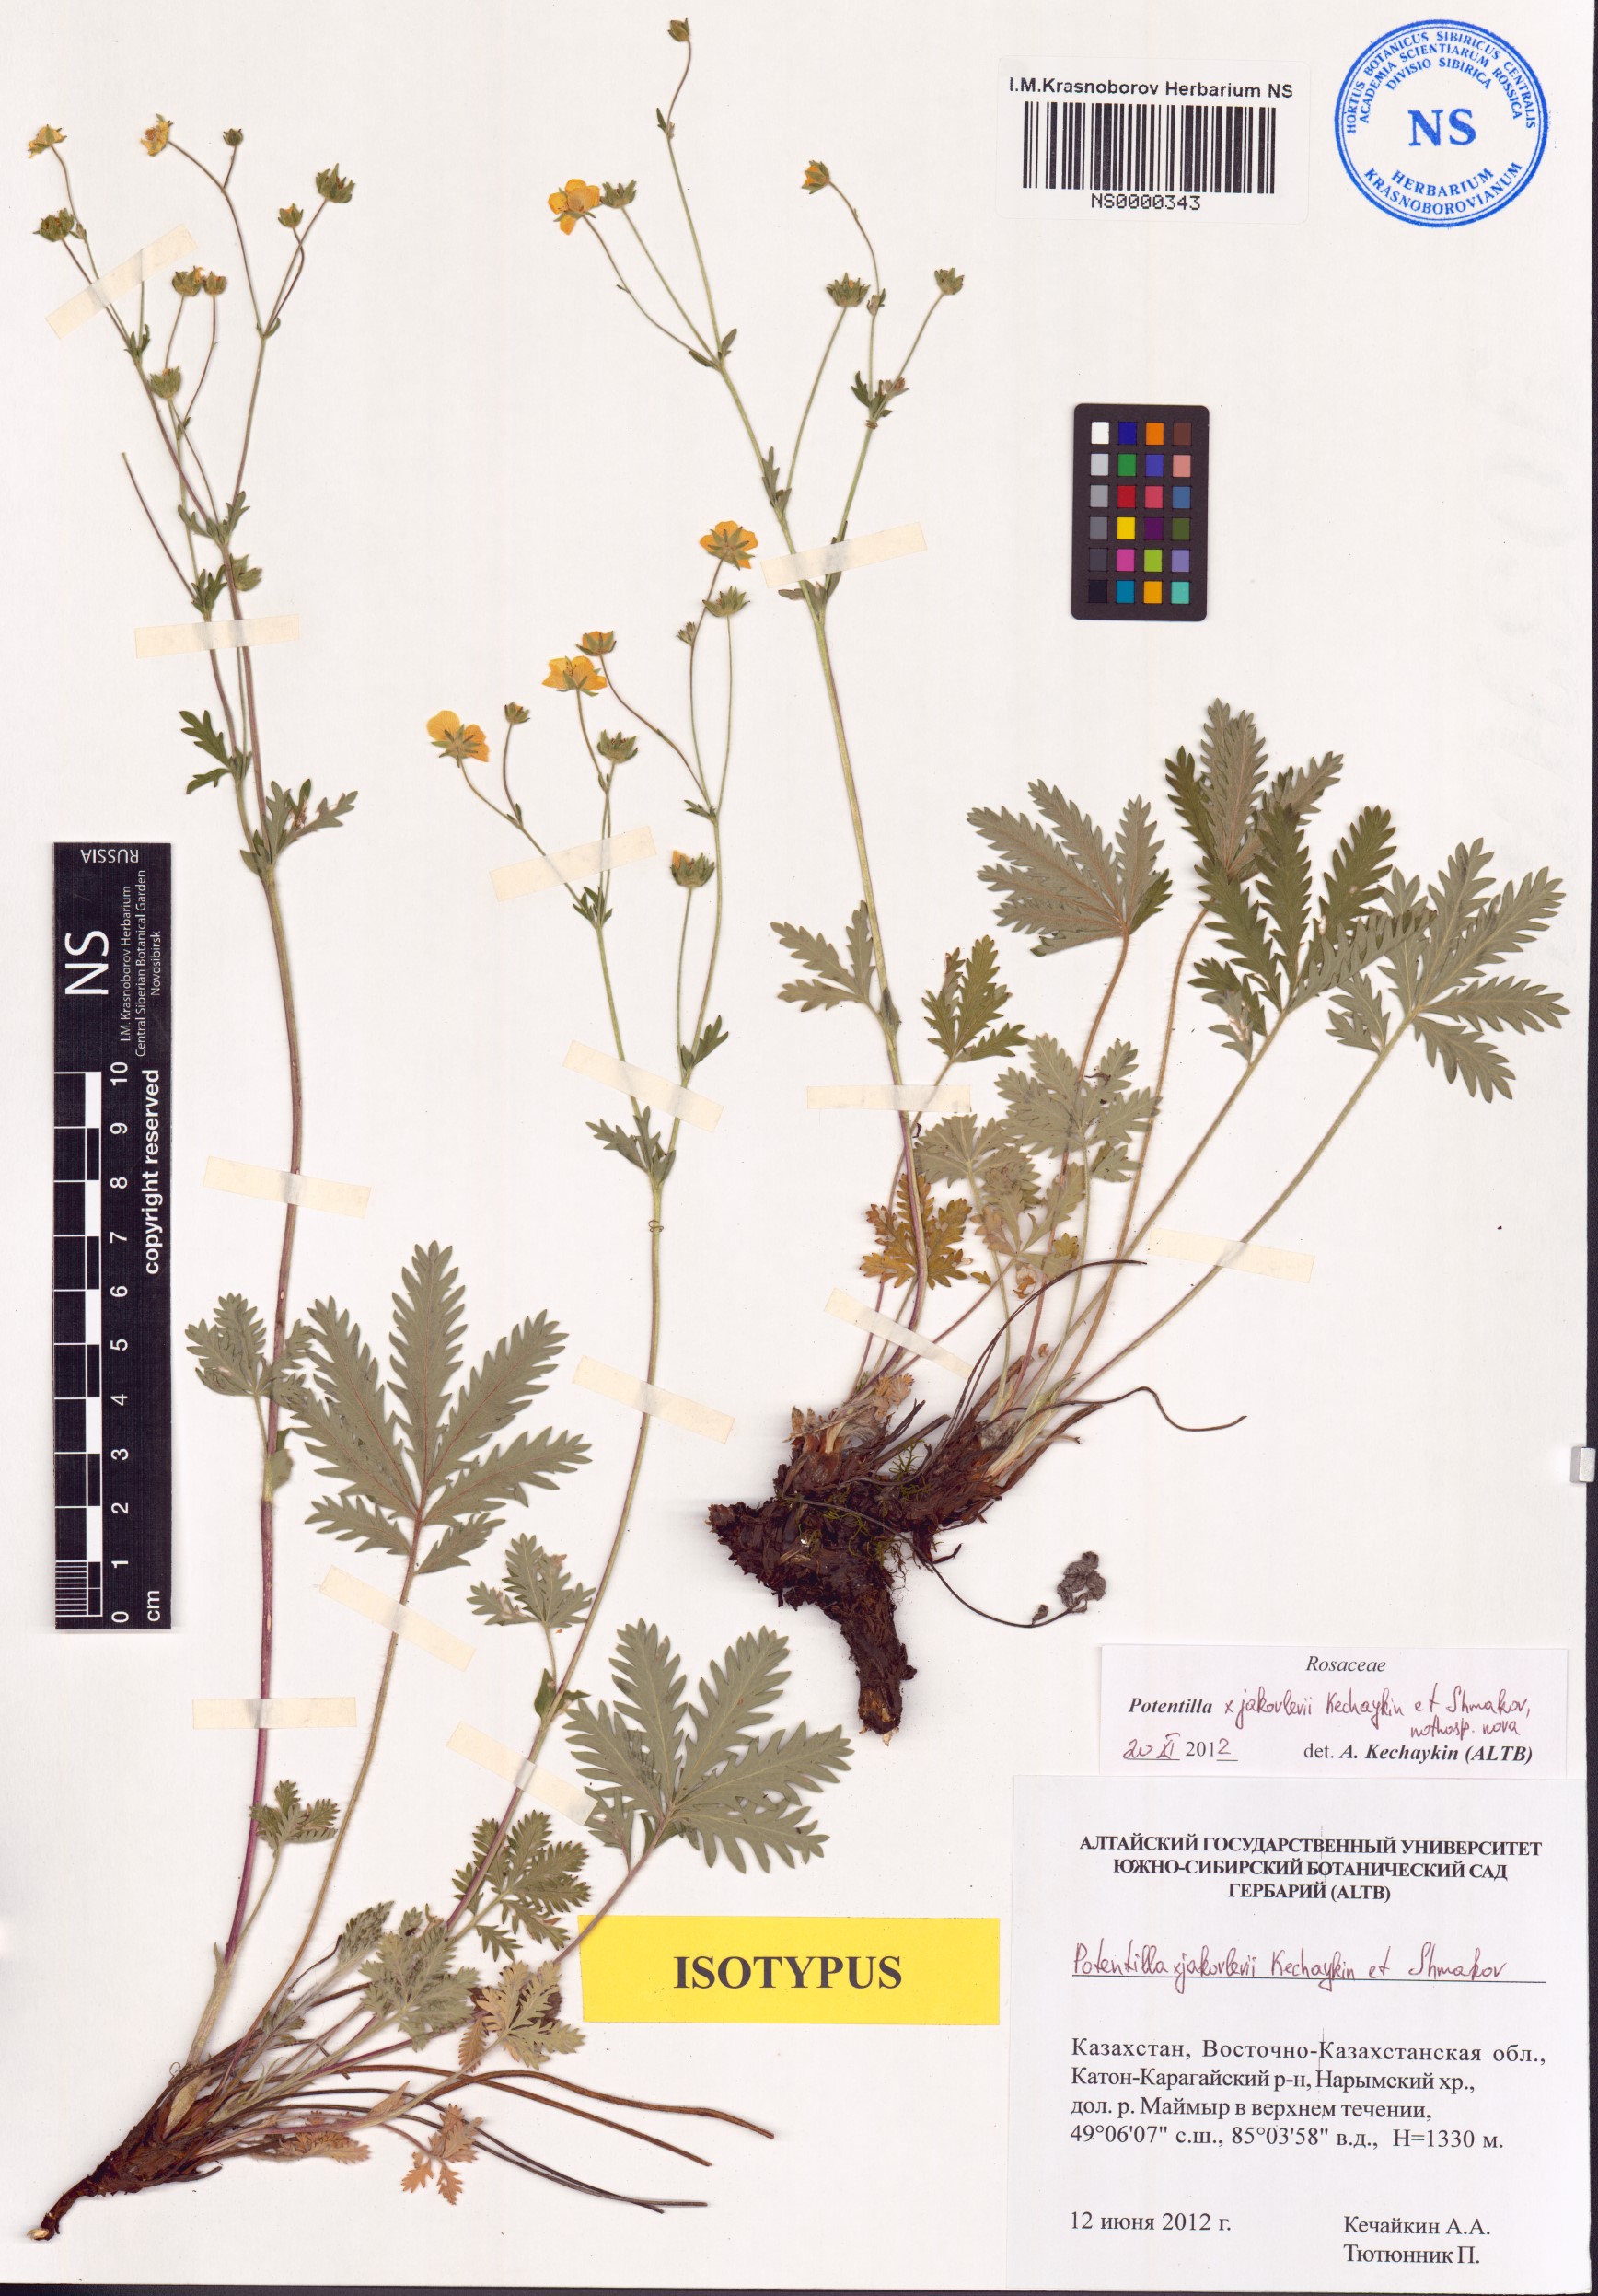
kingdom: Plantae
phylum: Tracheophyta
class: Magnoliopsida
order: Rosales
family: Rosaceae
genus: Potentilla
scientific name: Potentilla jakovlevii
